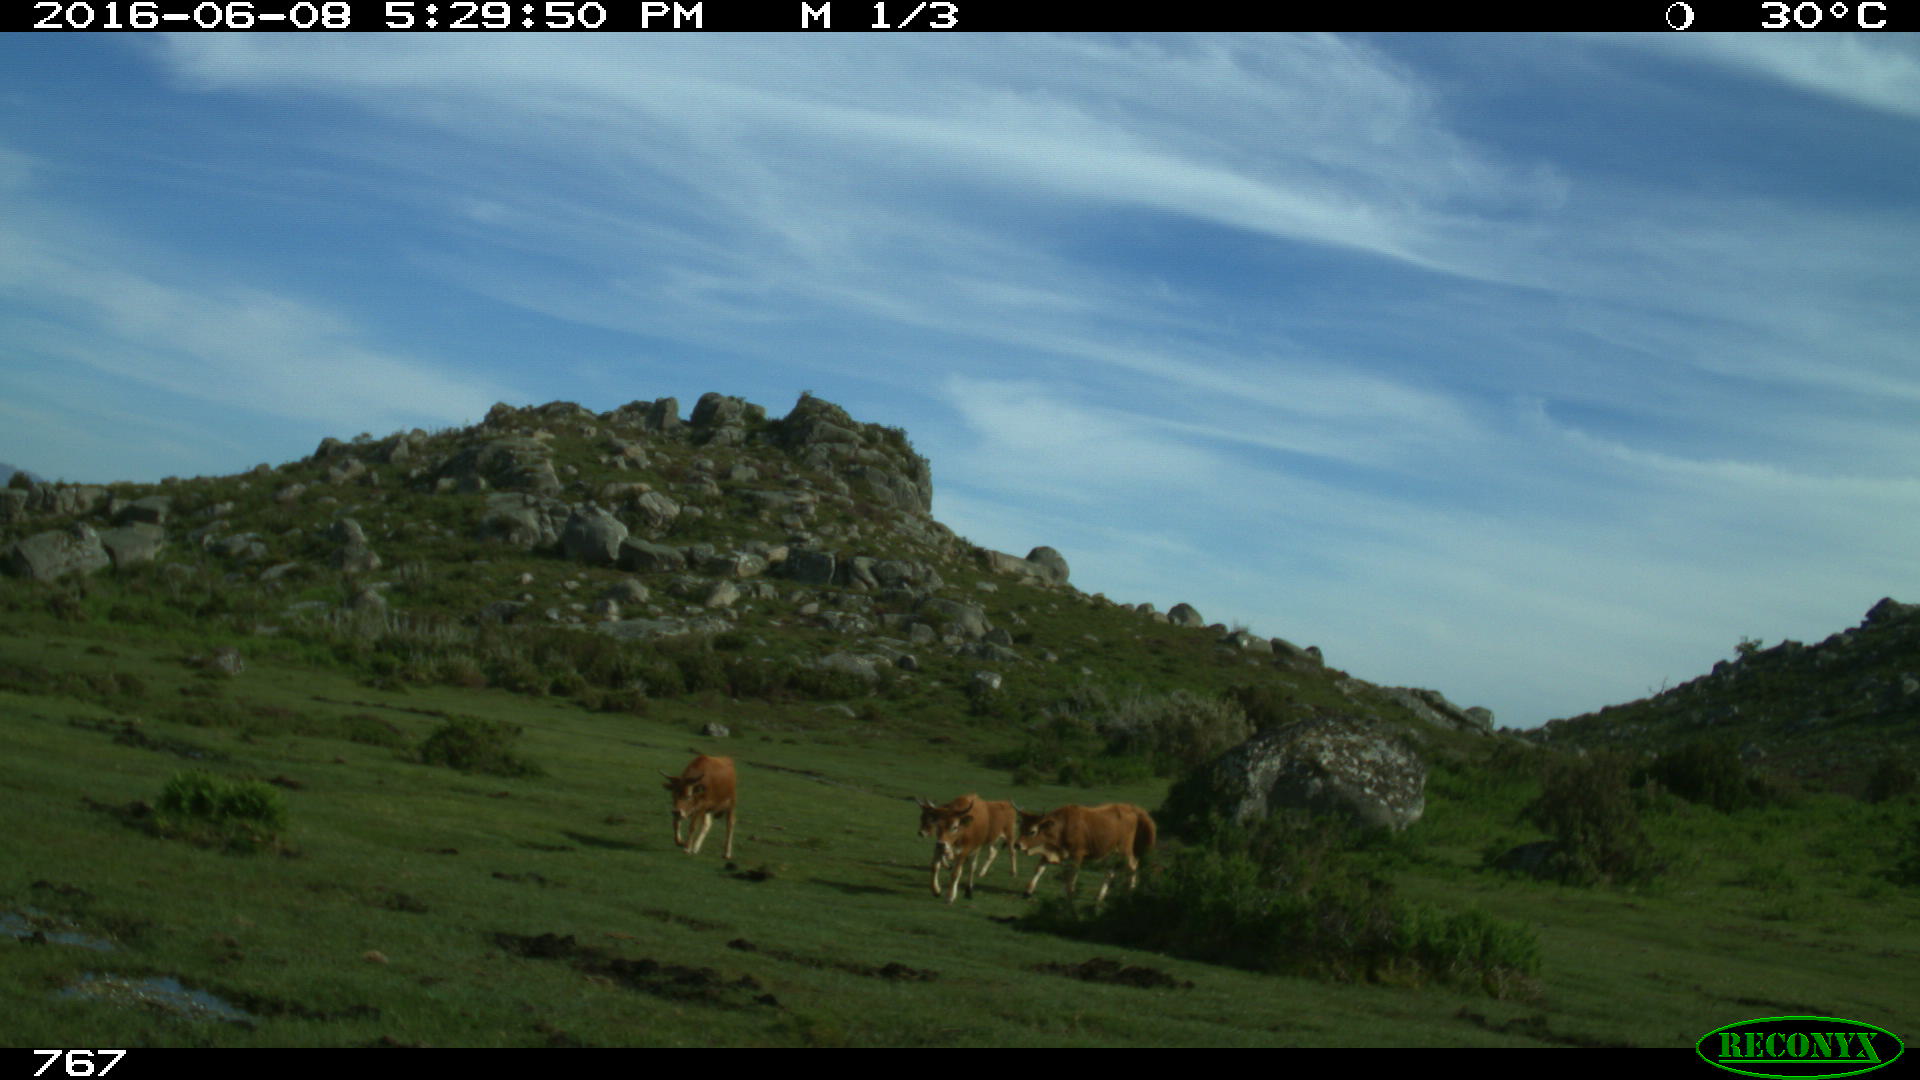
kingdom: Animalia
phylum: Chordata
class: Mammalia
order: Artiodactyla
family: Bovidae
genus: Bos
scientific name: Bos taurus
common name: Domesticated cattle
